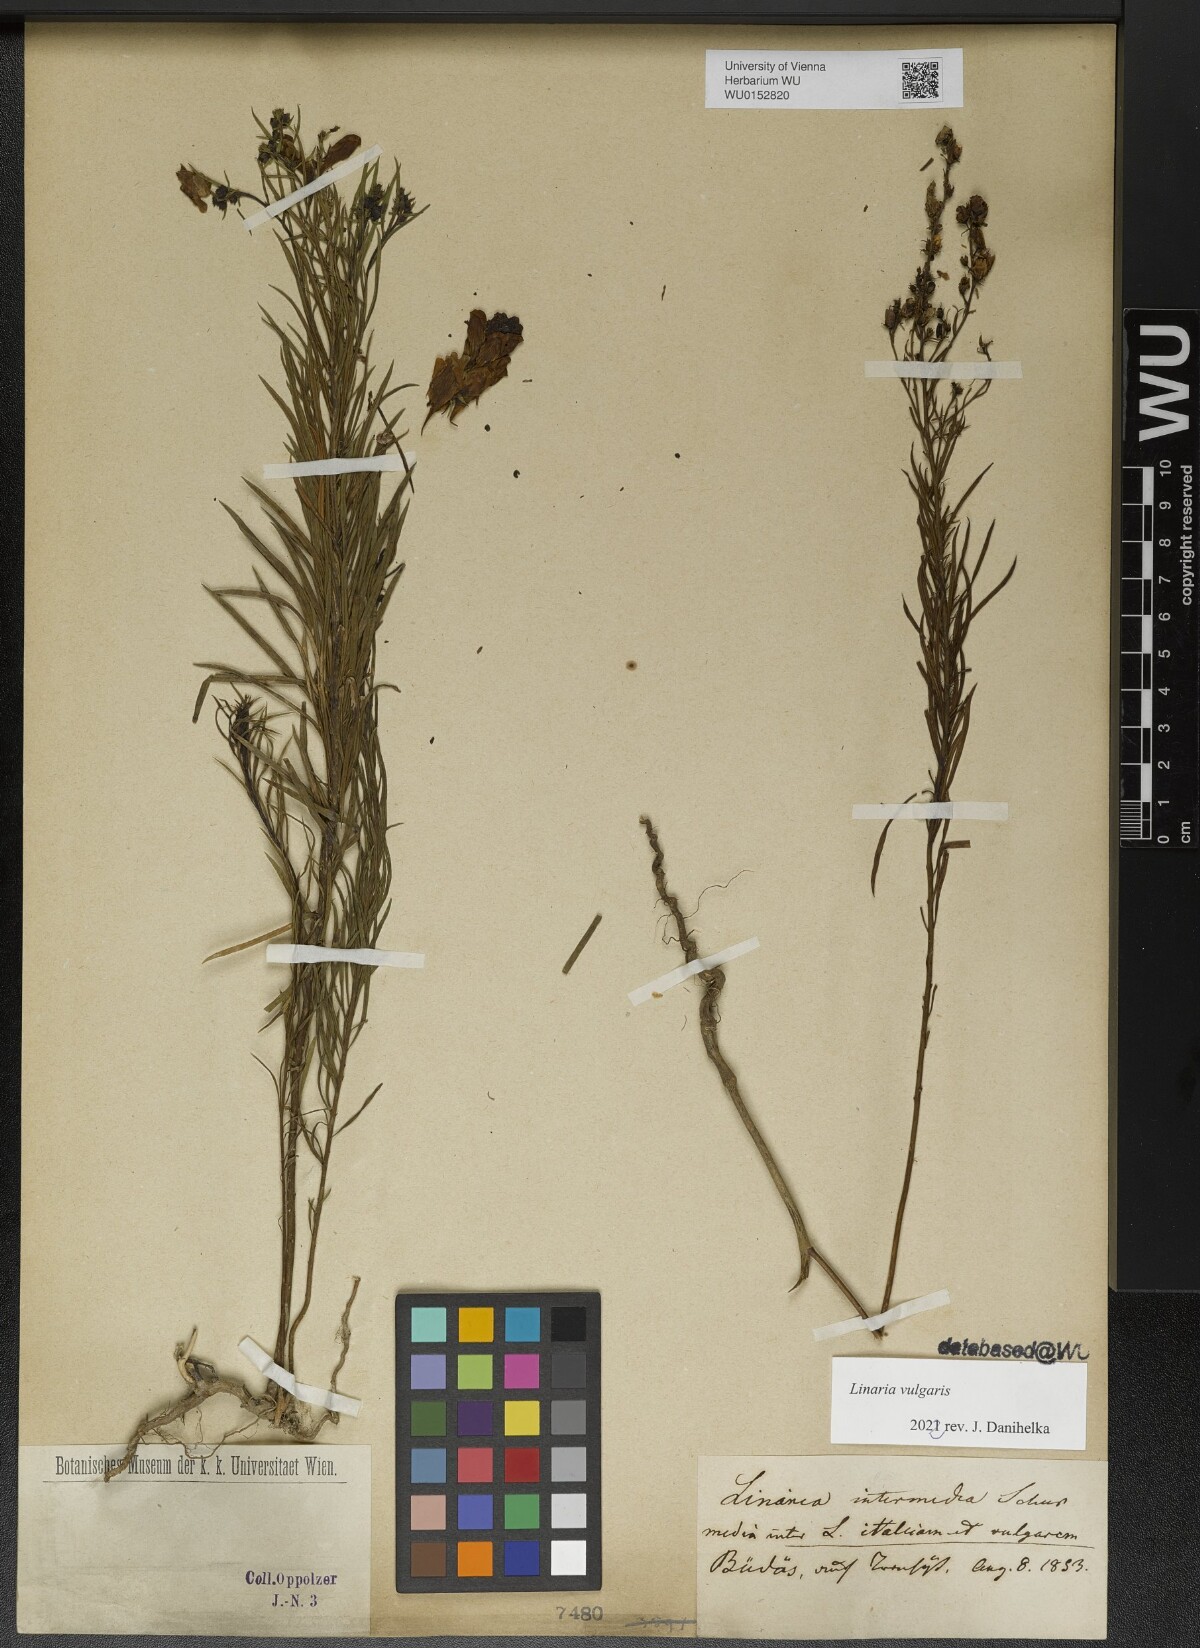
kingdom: Plantae
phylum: Tracheophyta
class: Magnoliopsida
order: Lamiales
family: Plantaginaceae
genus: Linaria
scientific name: Linaria vulgaris
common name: Butter and eggs
